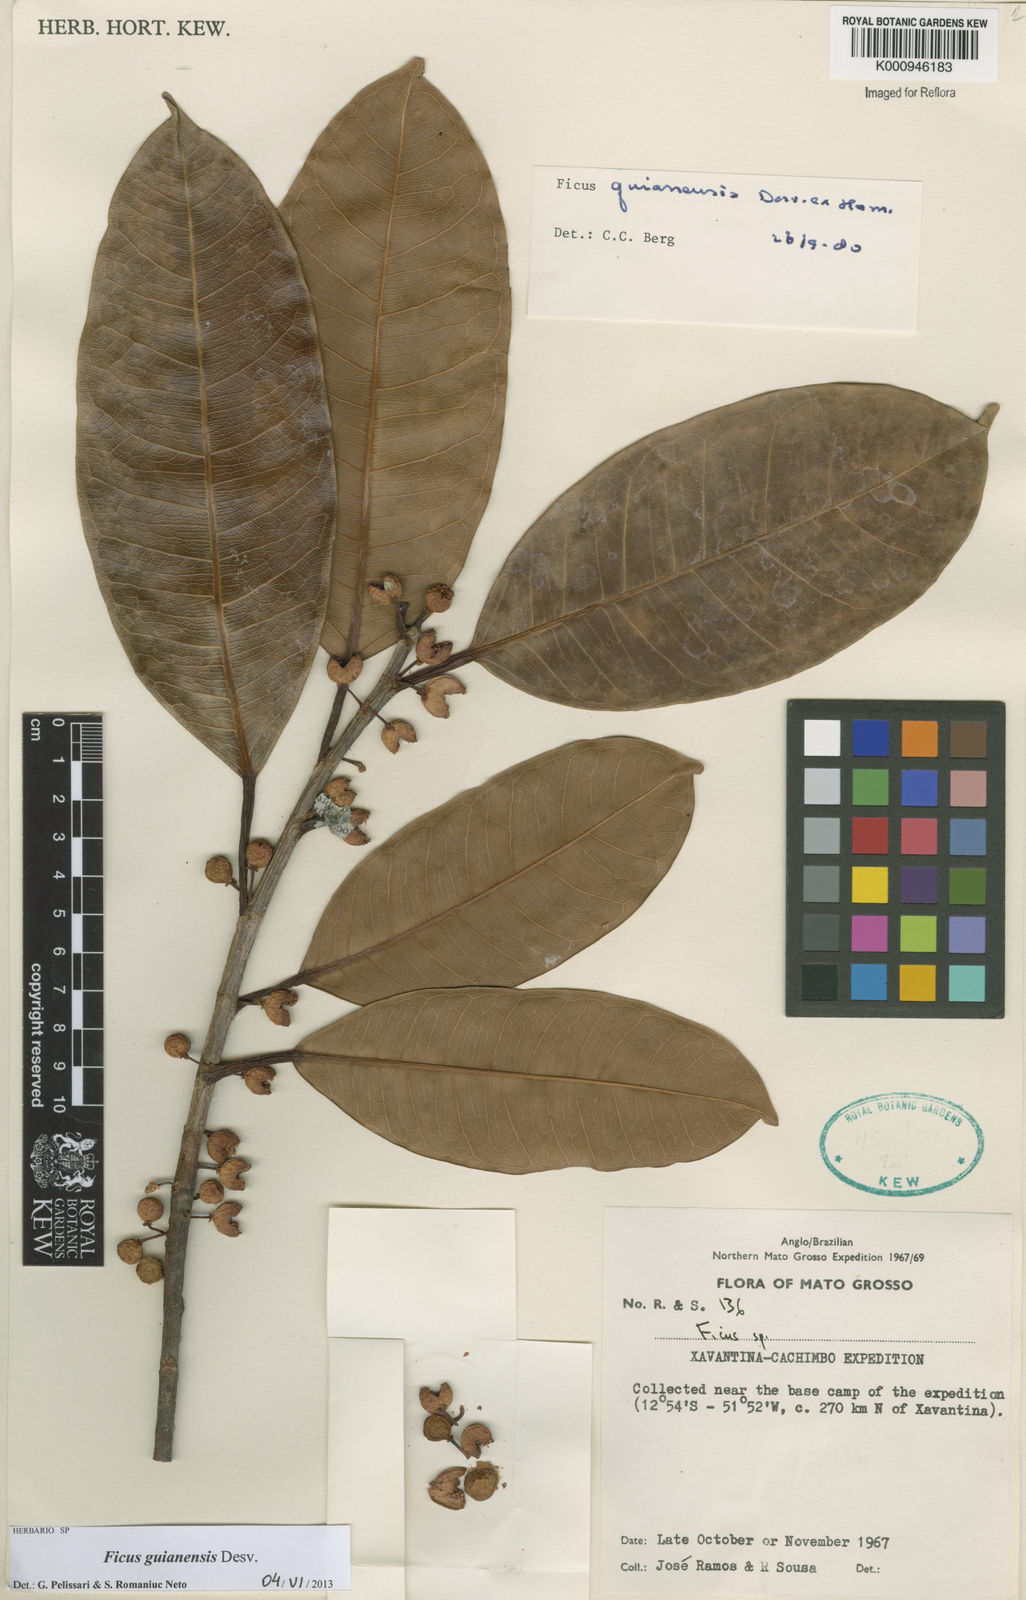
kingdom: Plantae
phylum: Tracheophyta
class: Magnoliopsida
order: Rosales
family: Moraceae
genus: Ficus
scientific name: Ficus americana
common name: Jamaican cherry fig
